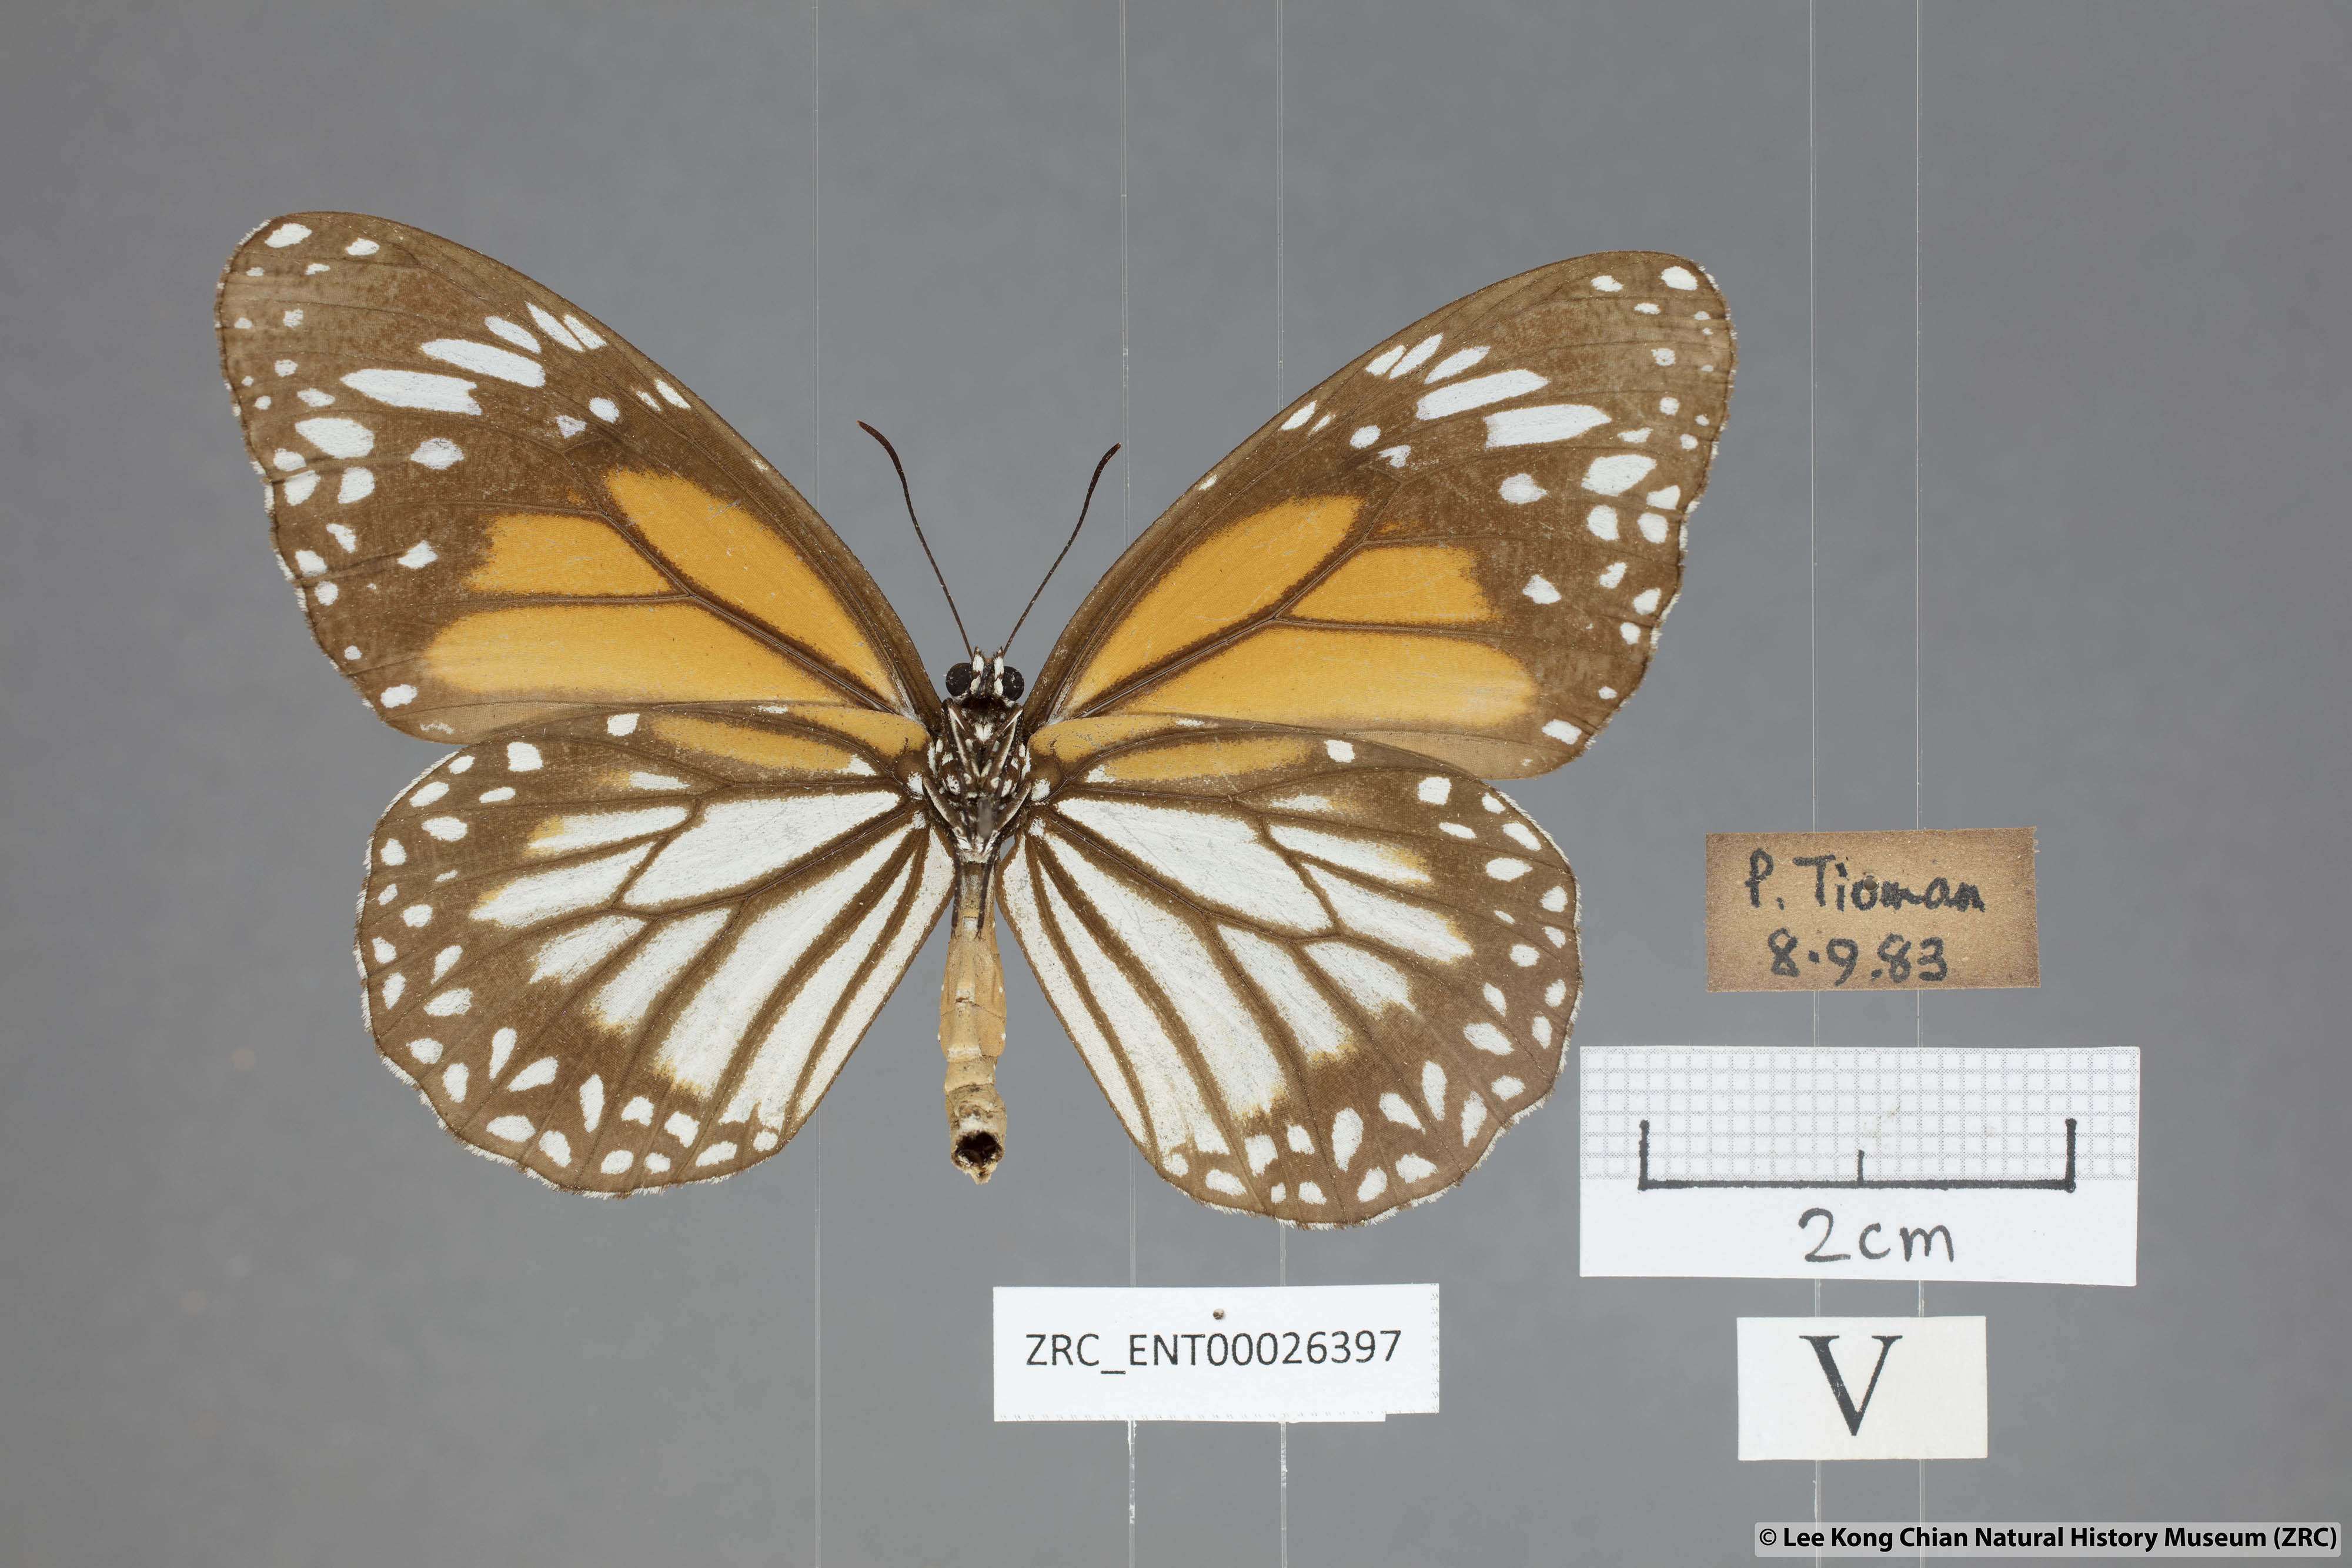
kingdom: Animalia
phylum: Arthropoda
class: Insecta
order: Lepidoptera
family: Nymphalidae
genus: Danaus
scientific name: Danaus melanippus
